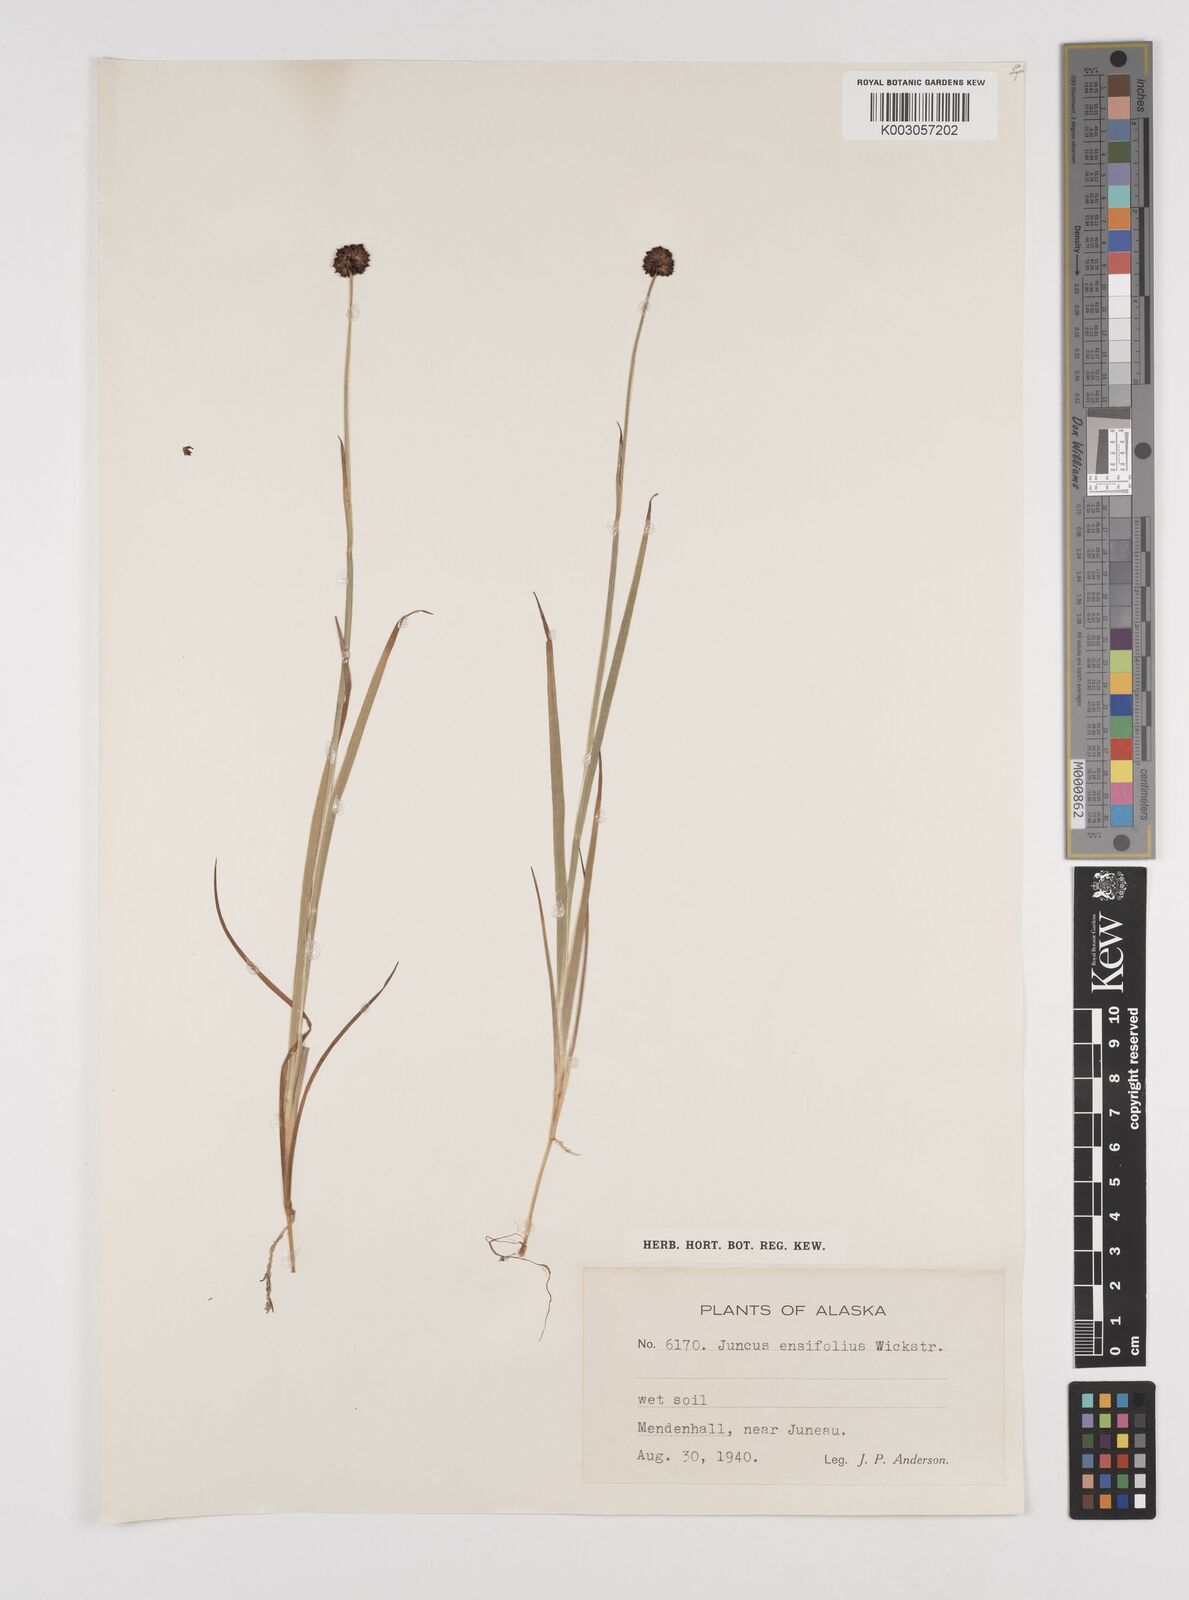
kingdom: Plantae
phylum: Tracheophyta
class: Liliopsida
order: Poales
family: Juncaceae
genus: Juncus
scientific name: Juncus ensifolius
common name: Sword-leaved rush
